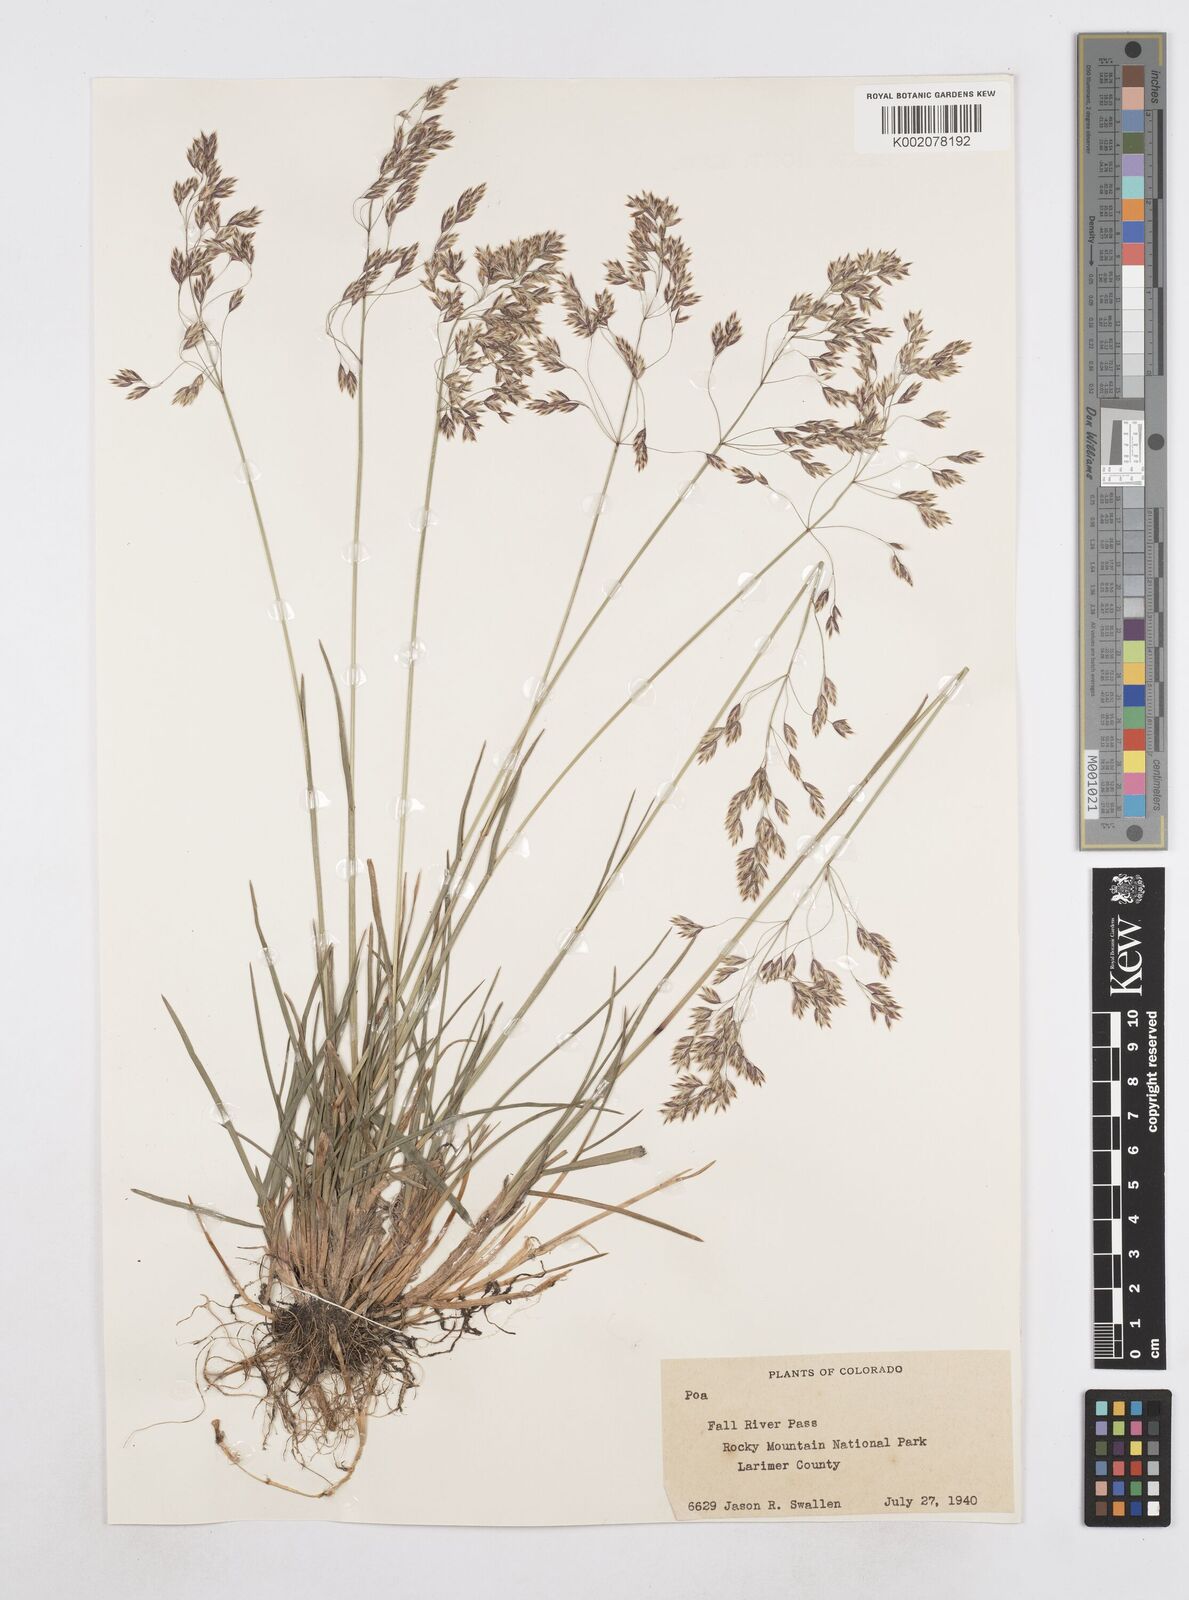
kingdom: Plantae
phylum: Tracheophyta
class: Liliopsida
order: Poales
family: Poaceae
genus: Poa
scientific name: Poa bactriana
